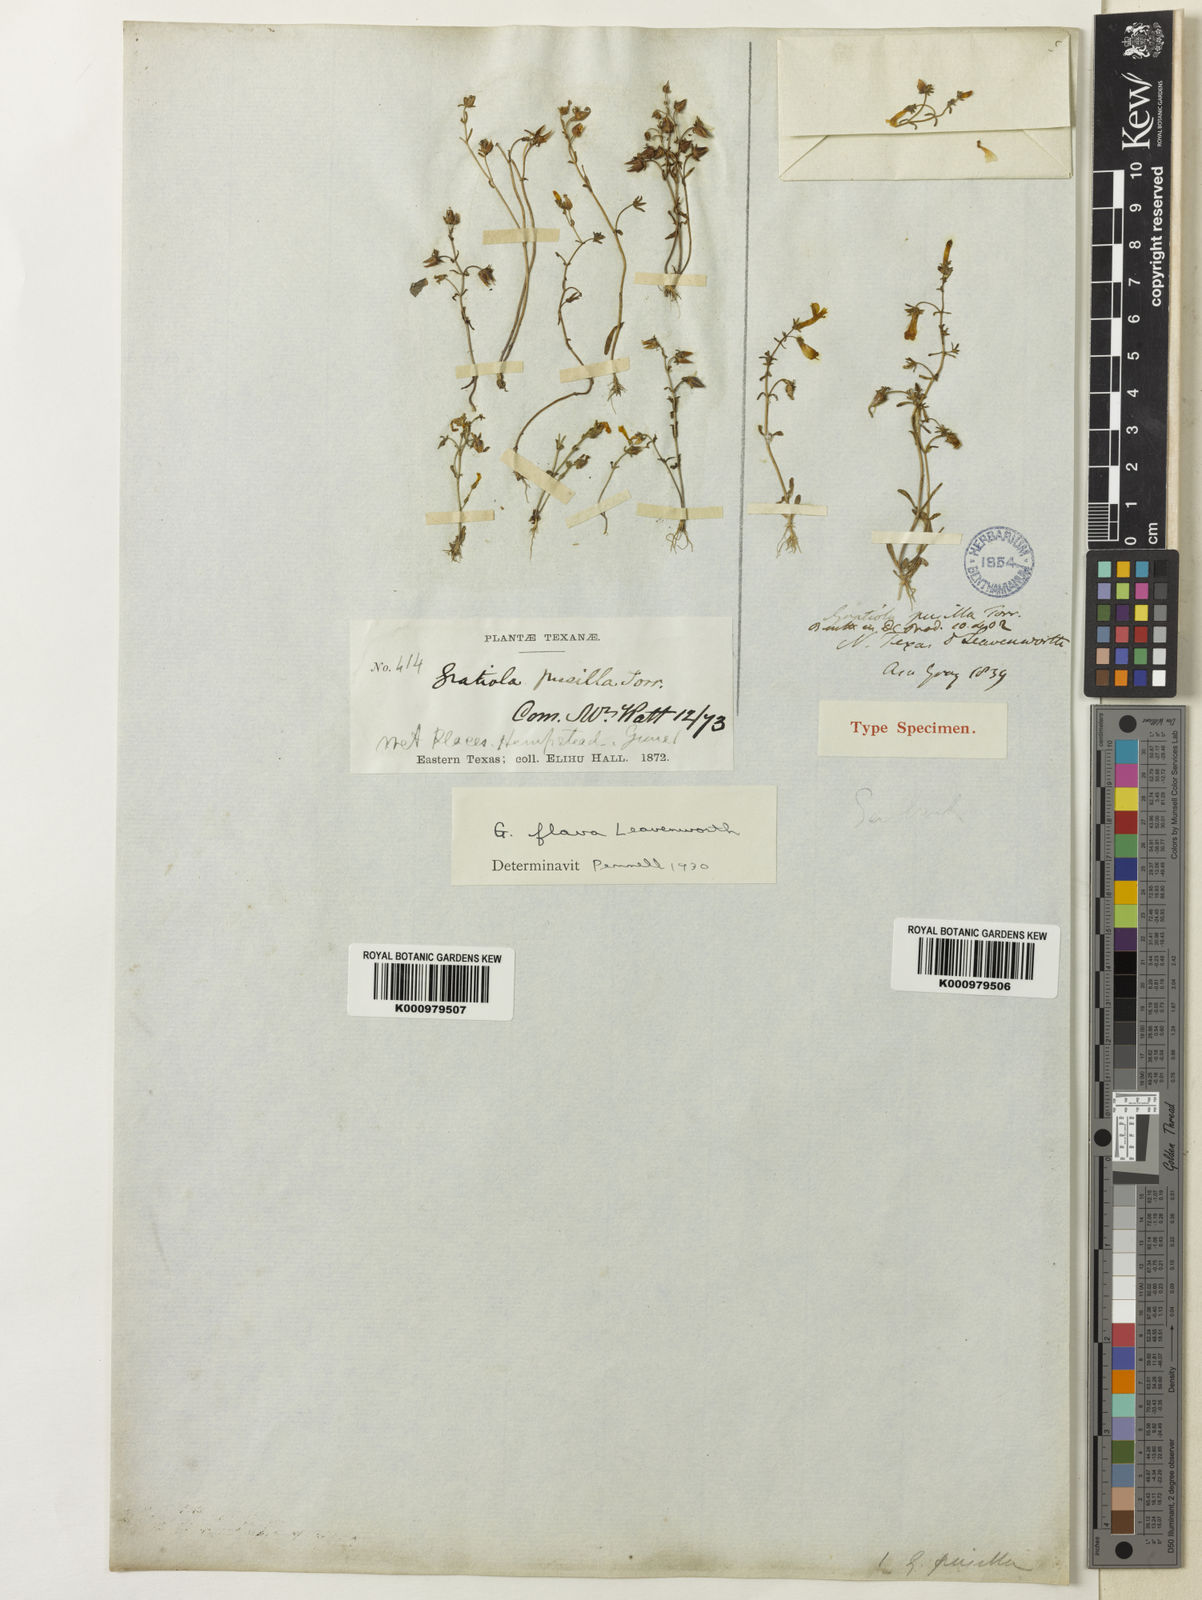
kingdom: Plantae
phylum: Tracheophyta
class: Magnoliopsida
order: Lamiales
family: Plantaginaceae
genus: Gratiola
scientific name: Gratiola torreyi
